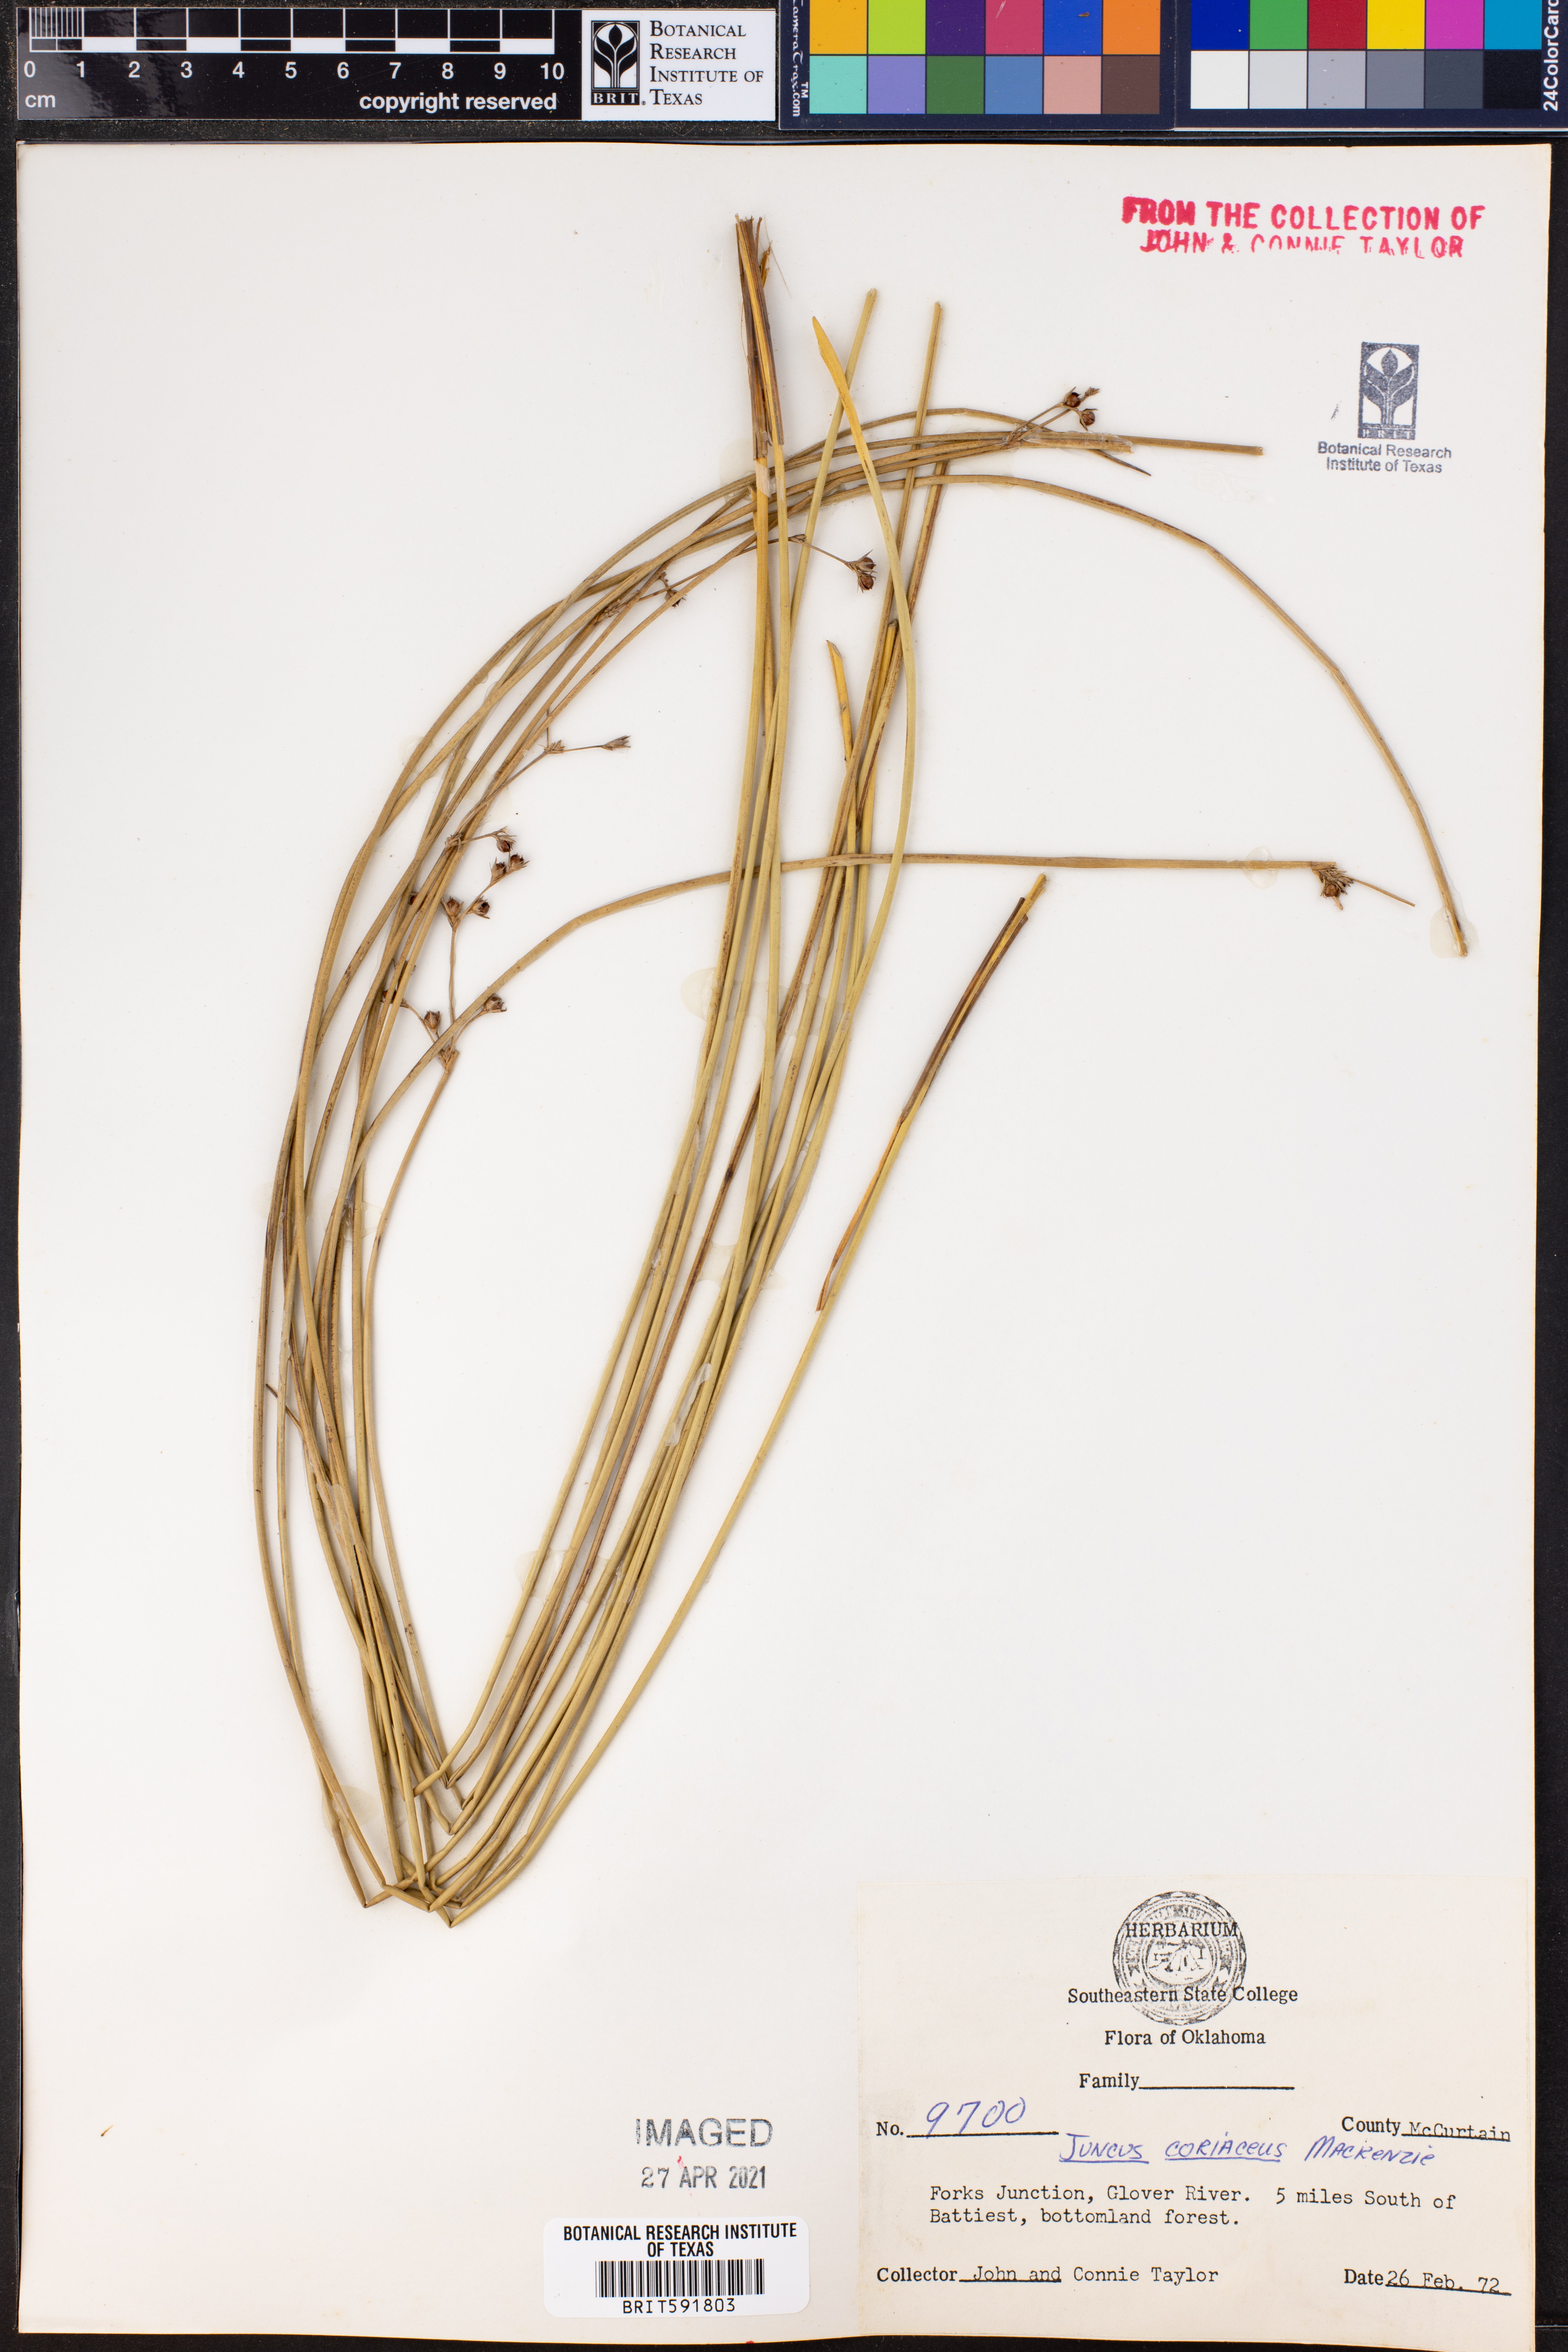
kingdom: Plantae
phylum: Tracheophyta
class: Liliopsida
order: Poales
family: Juncaceae
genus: Juncus
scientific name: Juncus coriaceus
